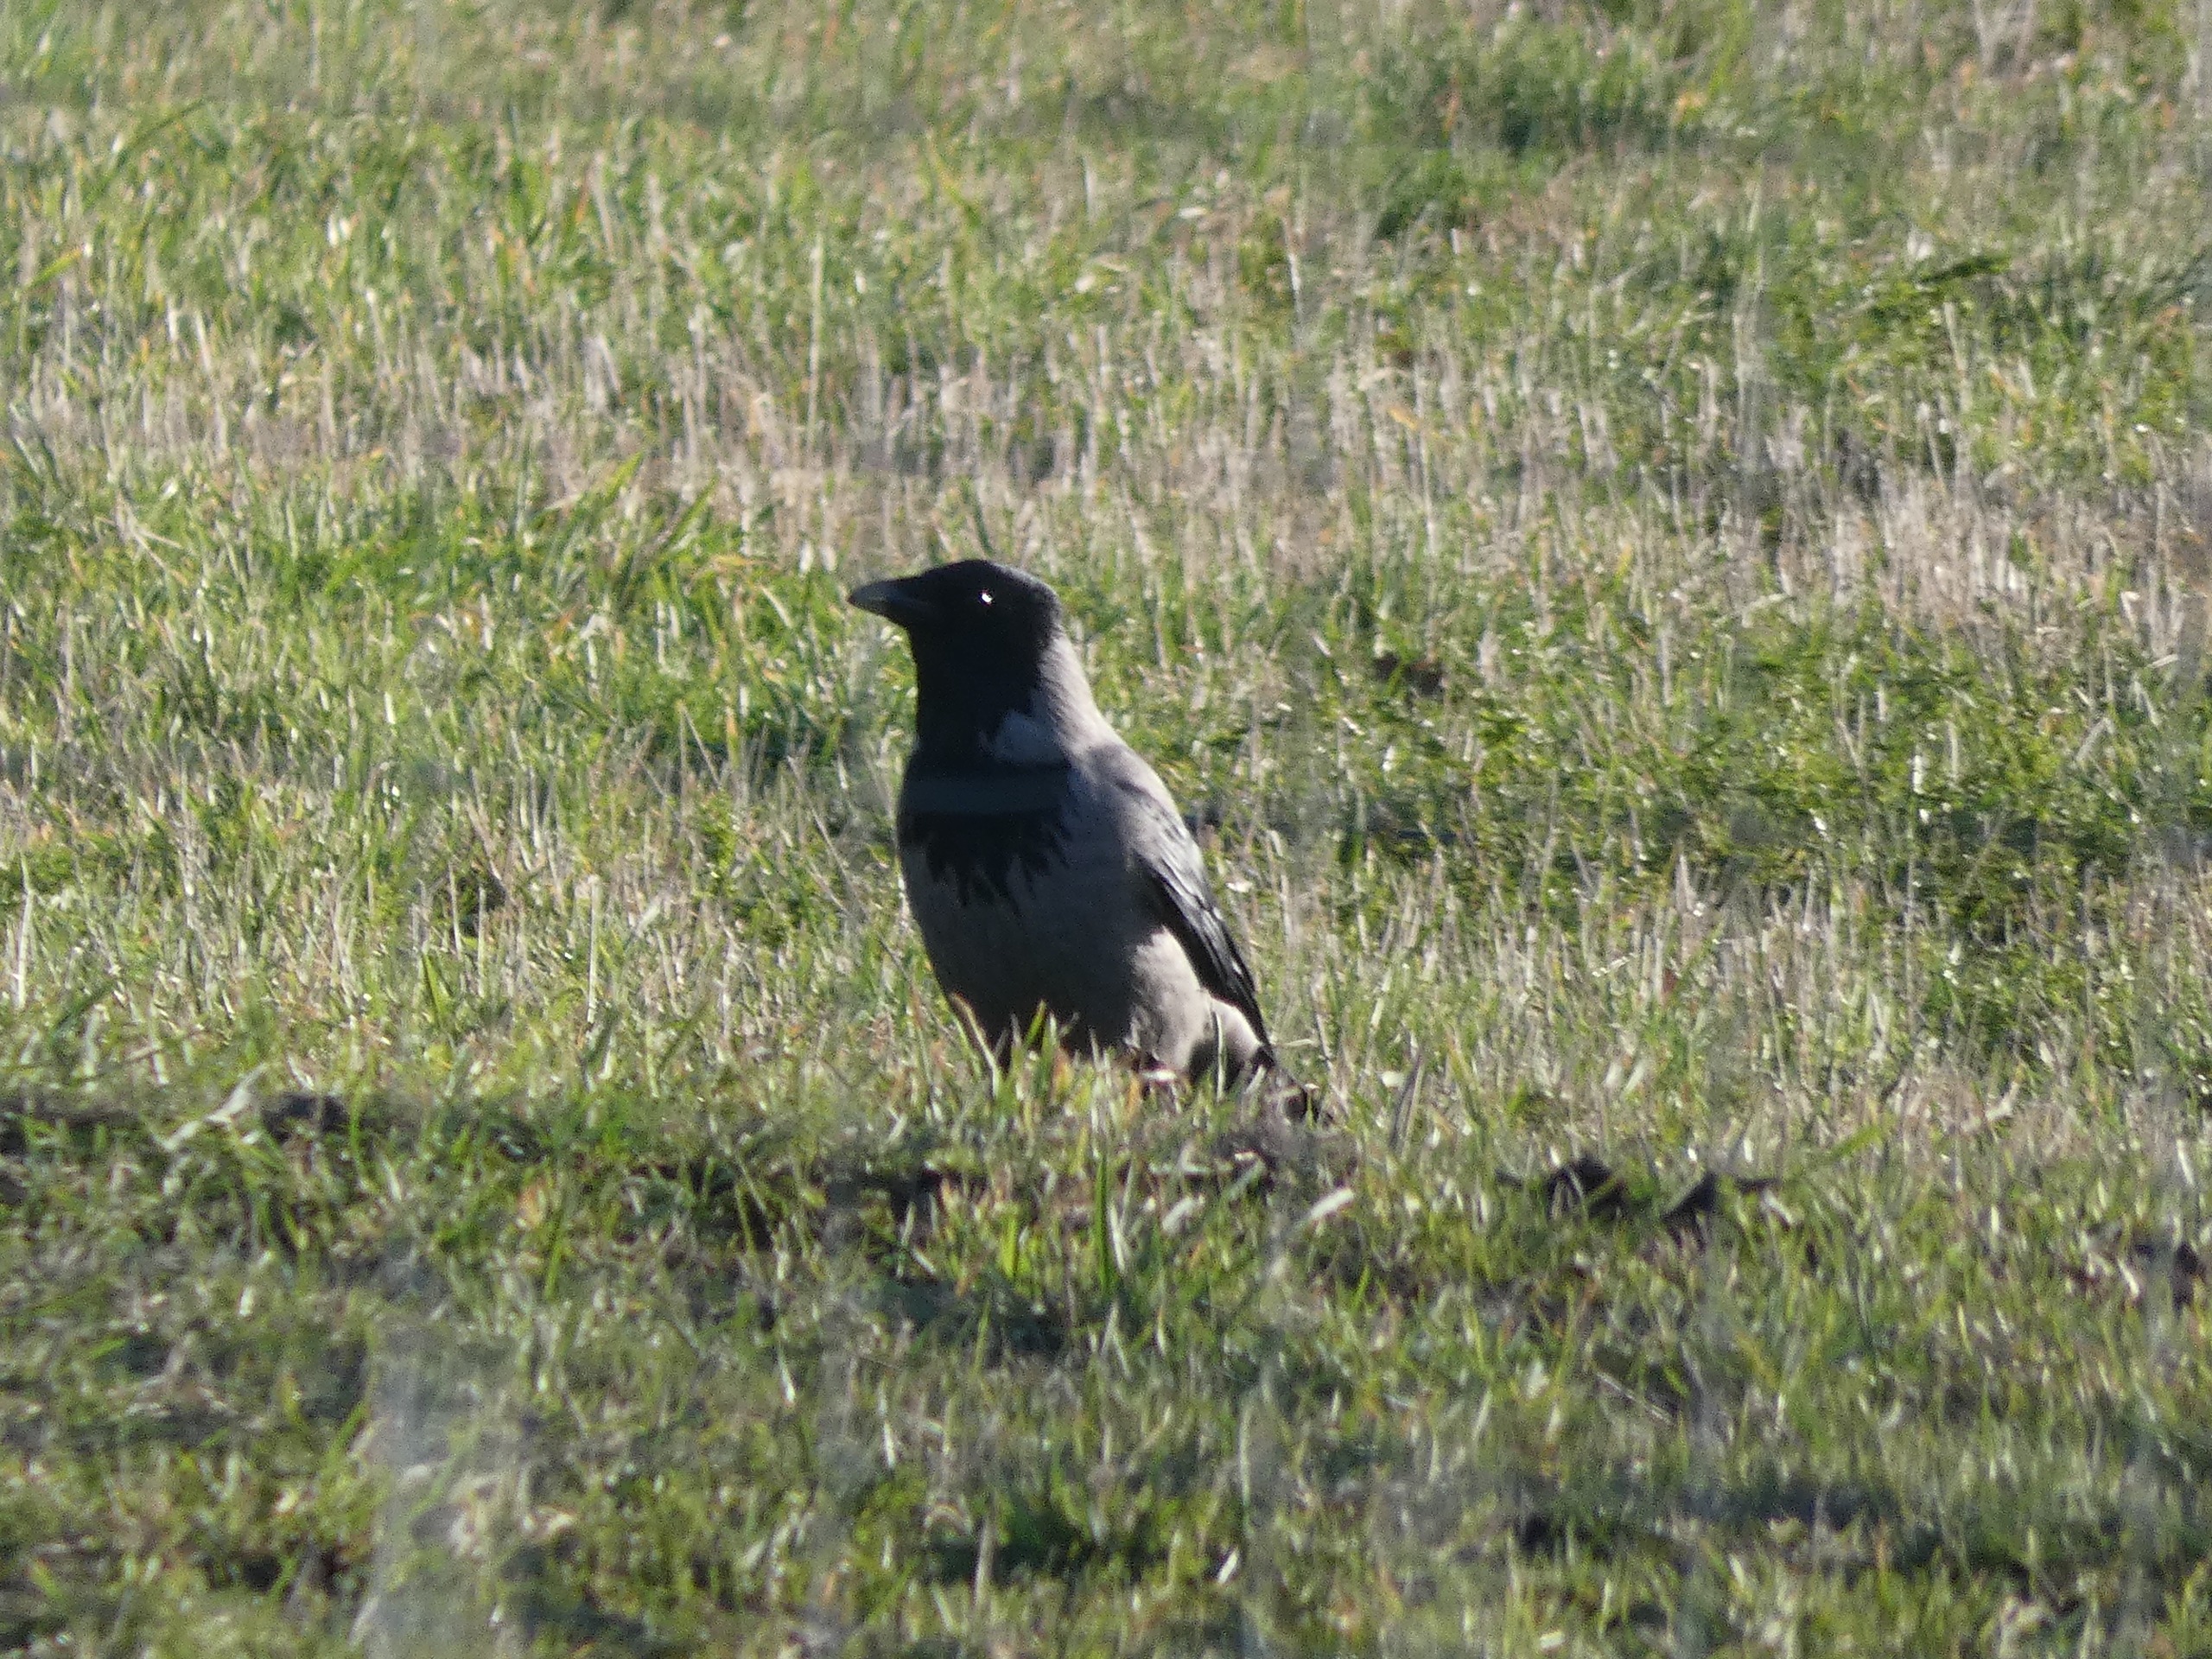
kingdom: Animalia
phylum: Chordata
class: Aves
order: Passeriformes
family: Corvidae
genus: Corvus
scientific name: Corvus cornix
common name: Gråkrage
